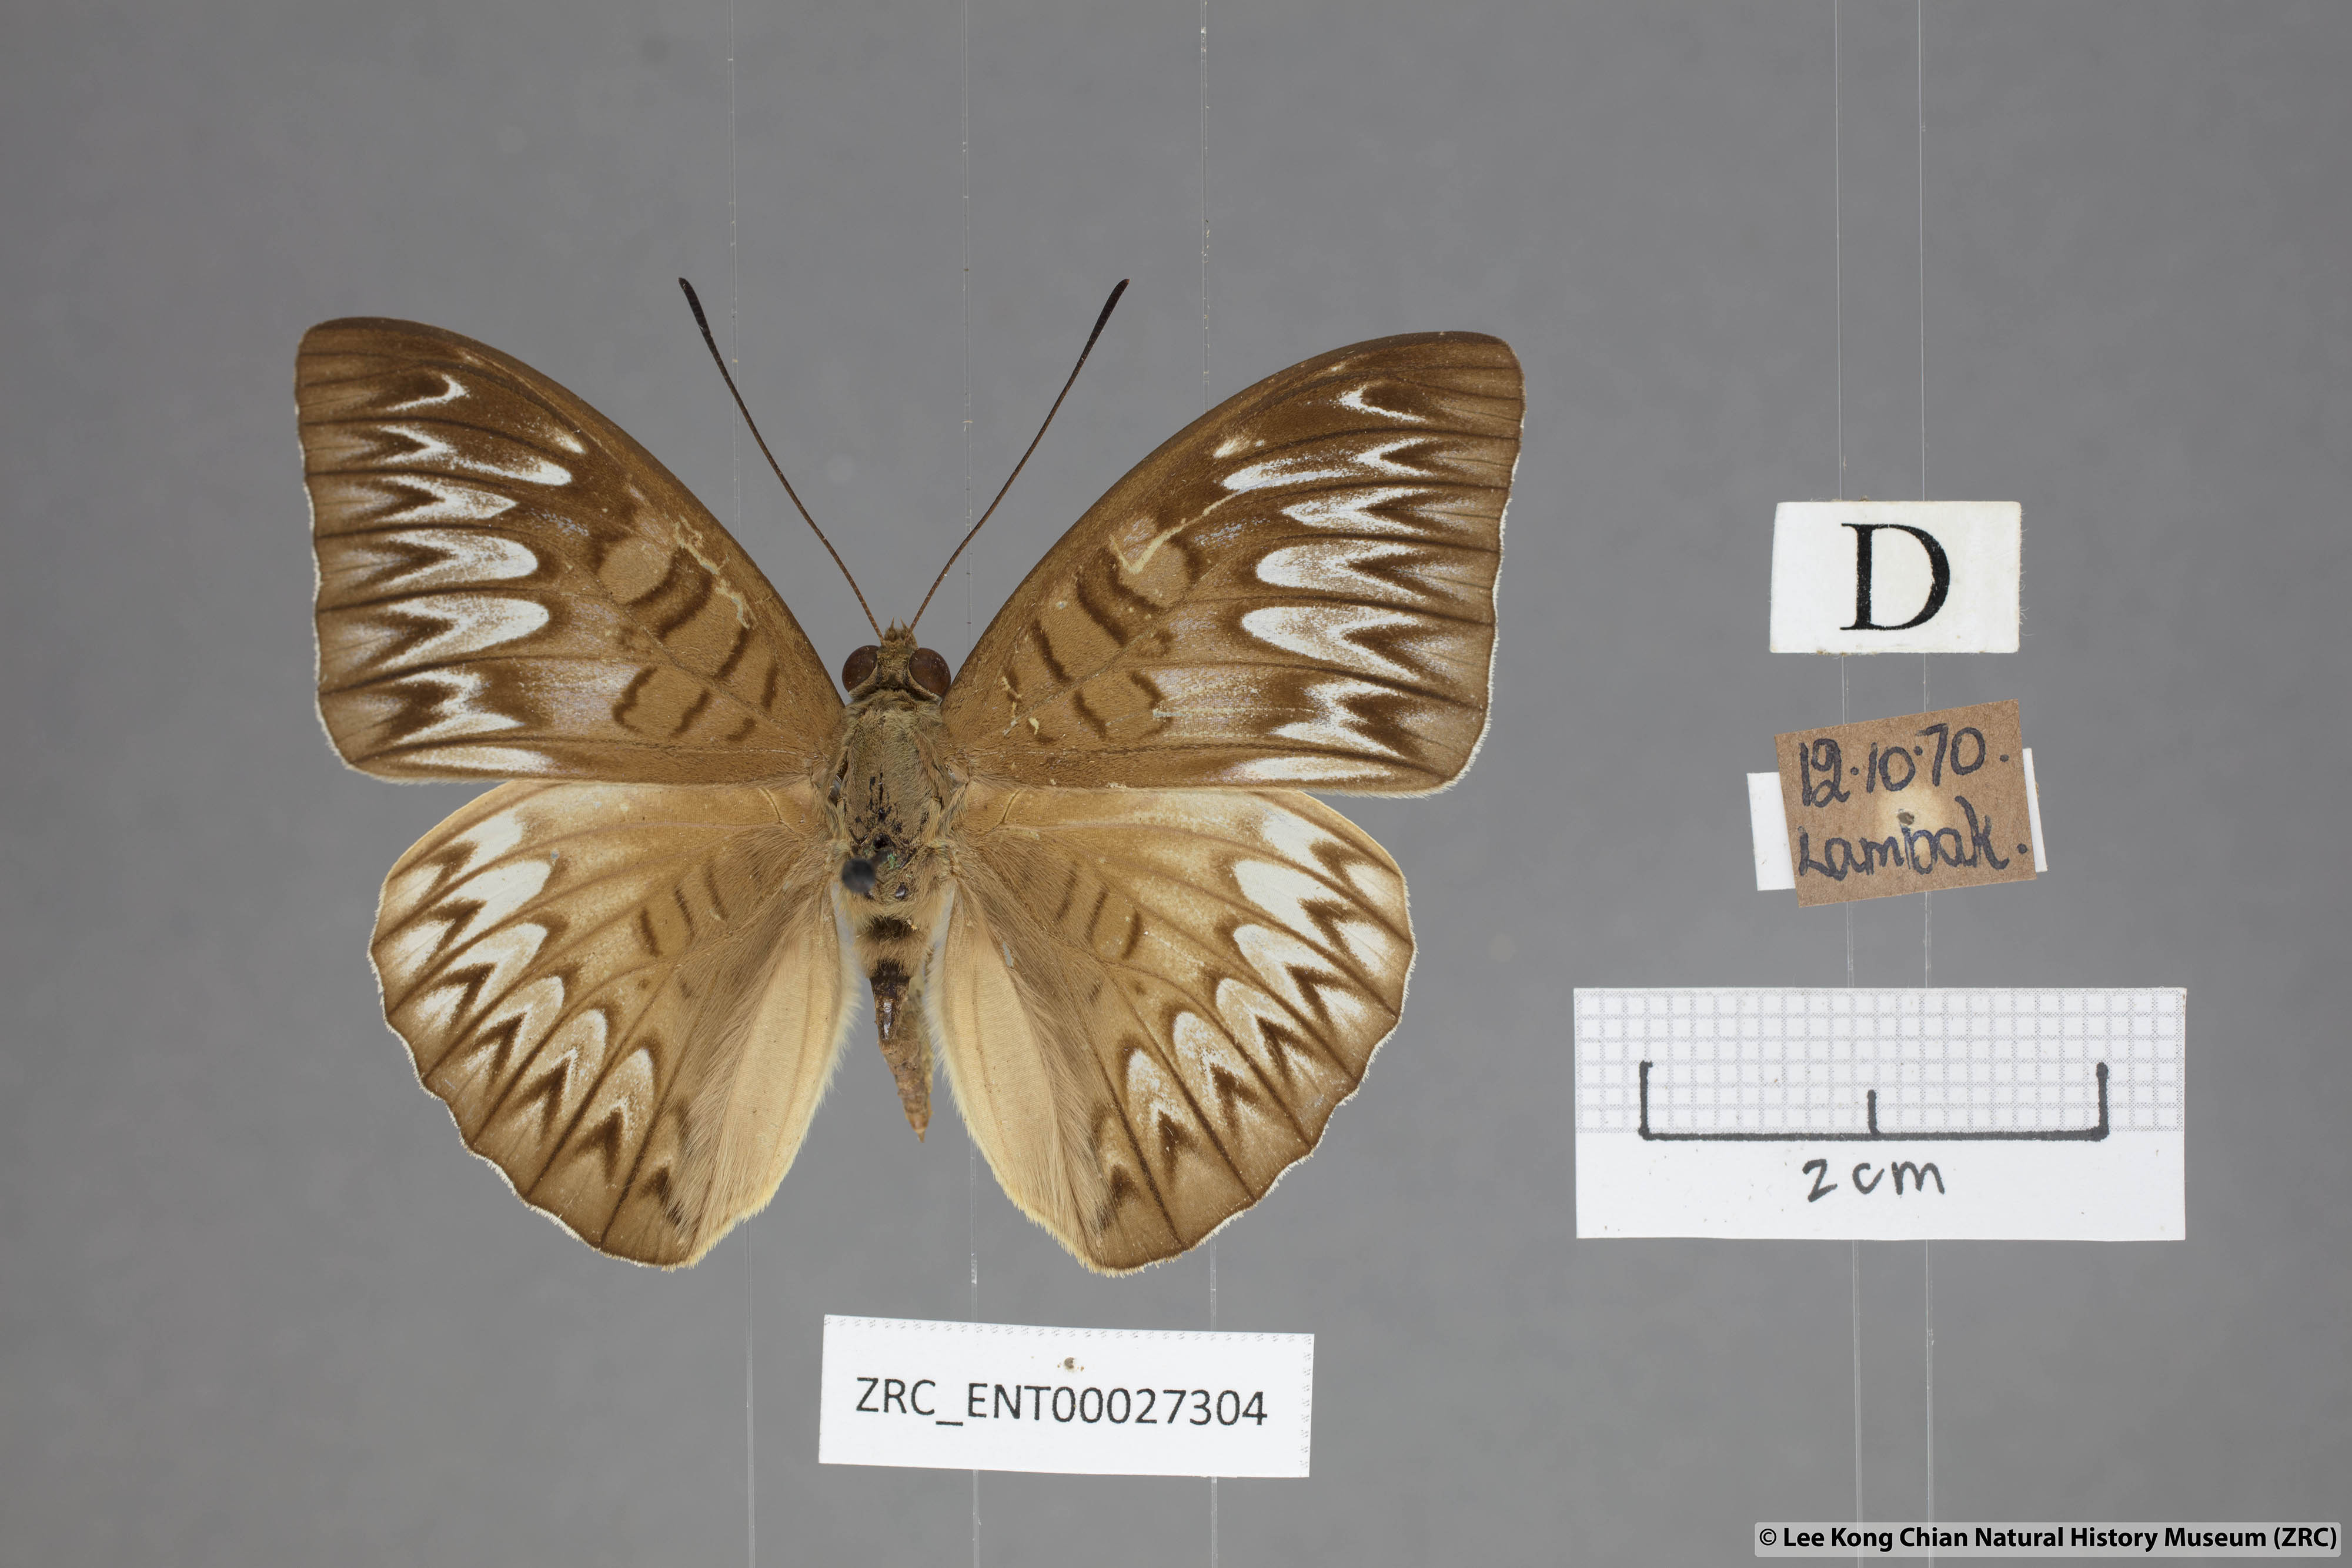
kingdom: Animalia
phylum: Arthropoda
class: Insecta
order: Lepidoptera
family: Nymphalidae
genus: Tanaecia
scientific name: Tanaecia munda
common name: Peninsular viscount
